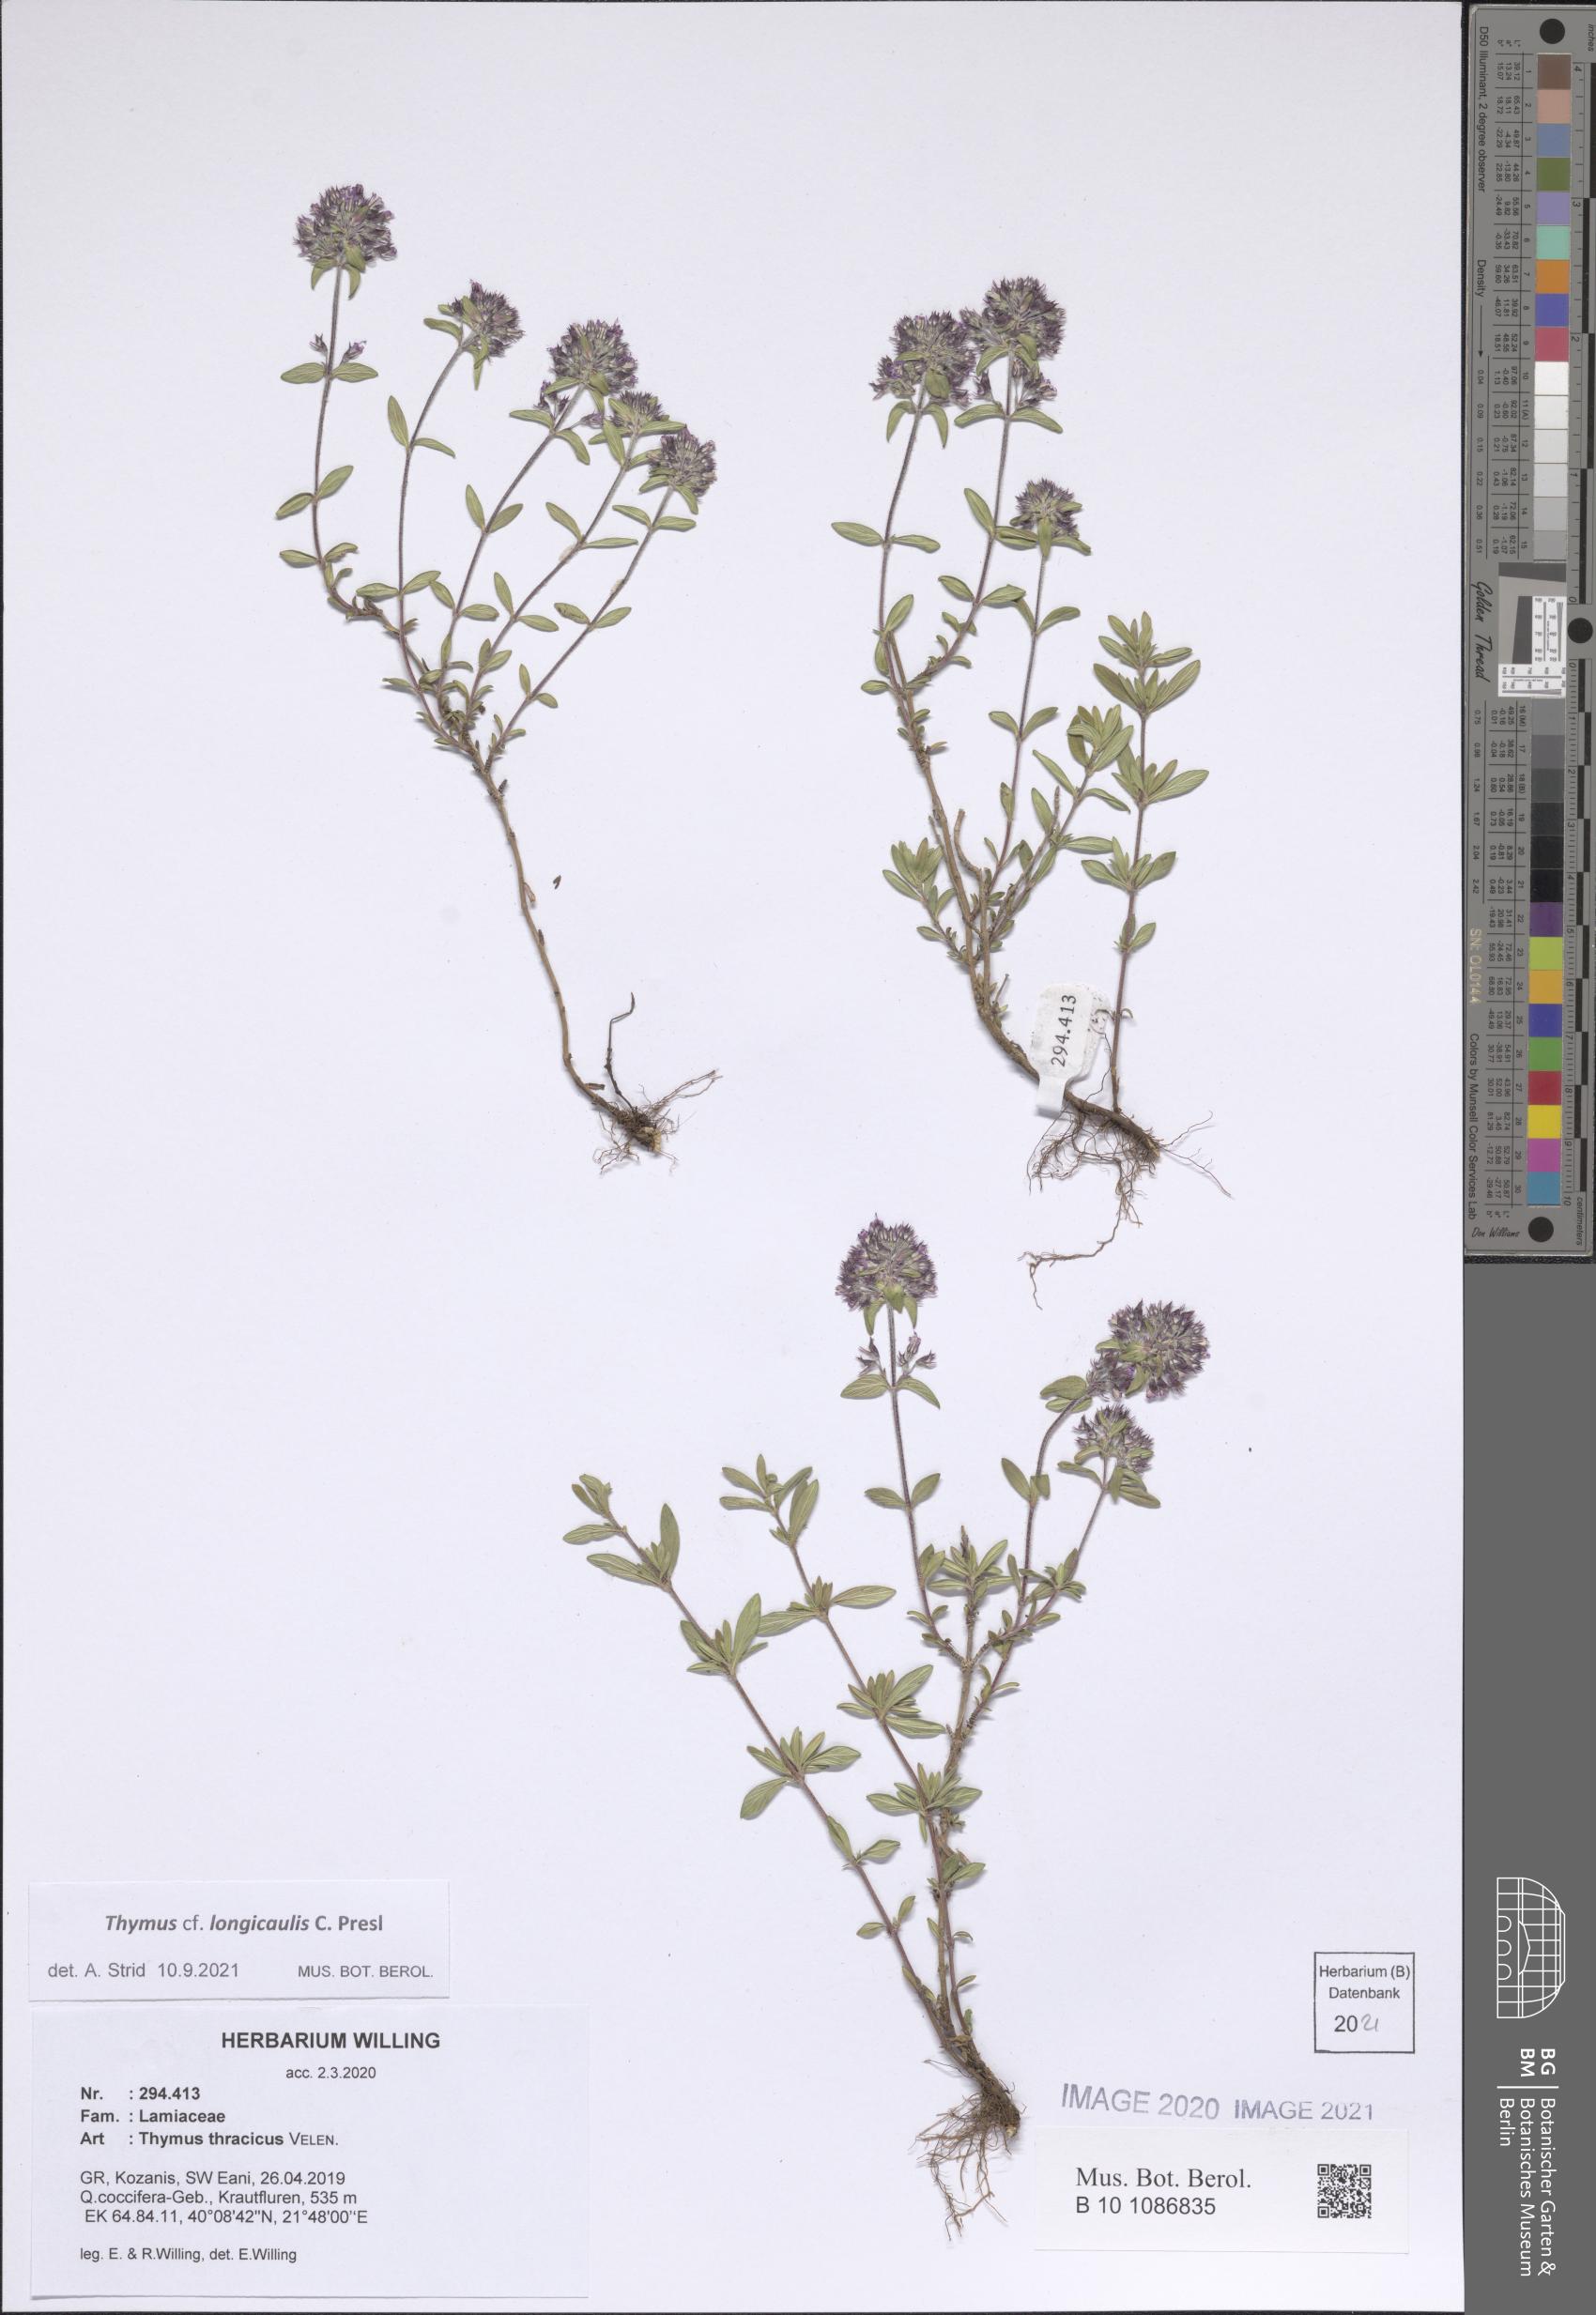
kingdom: Plantae
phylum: Tracheophyta
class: Magnoliopsida
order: Lamiales
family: Lamiaceae
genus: Thymus
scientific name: Thymus longicaulis
